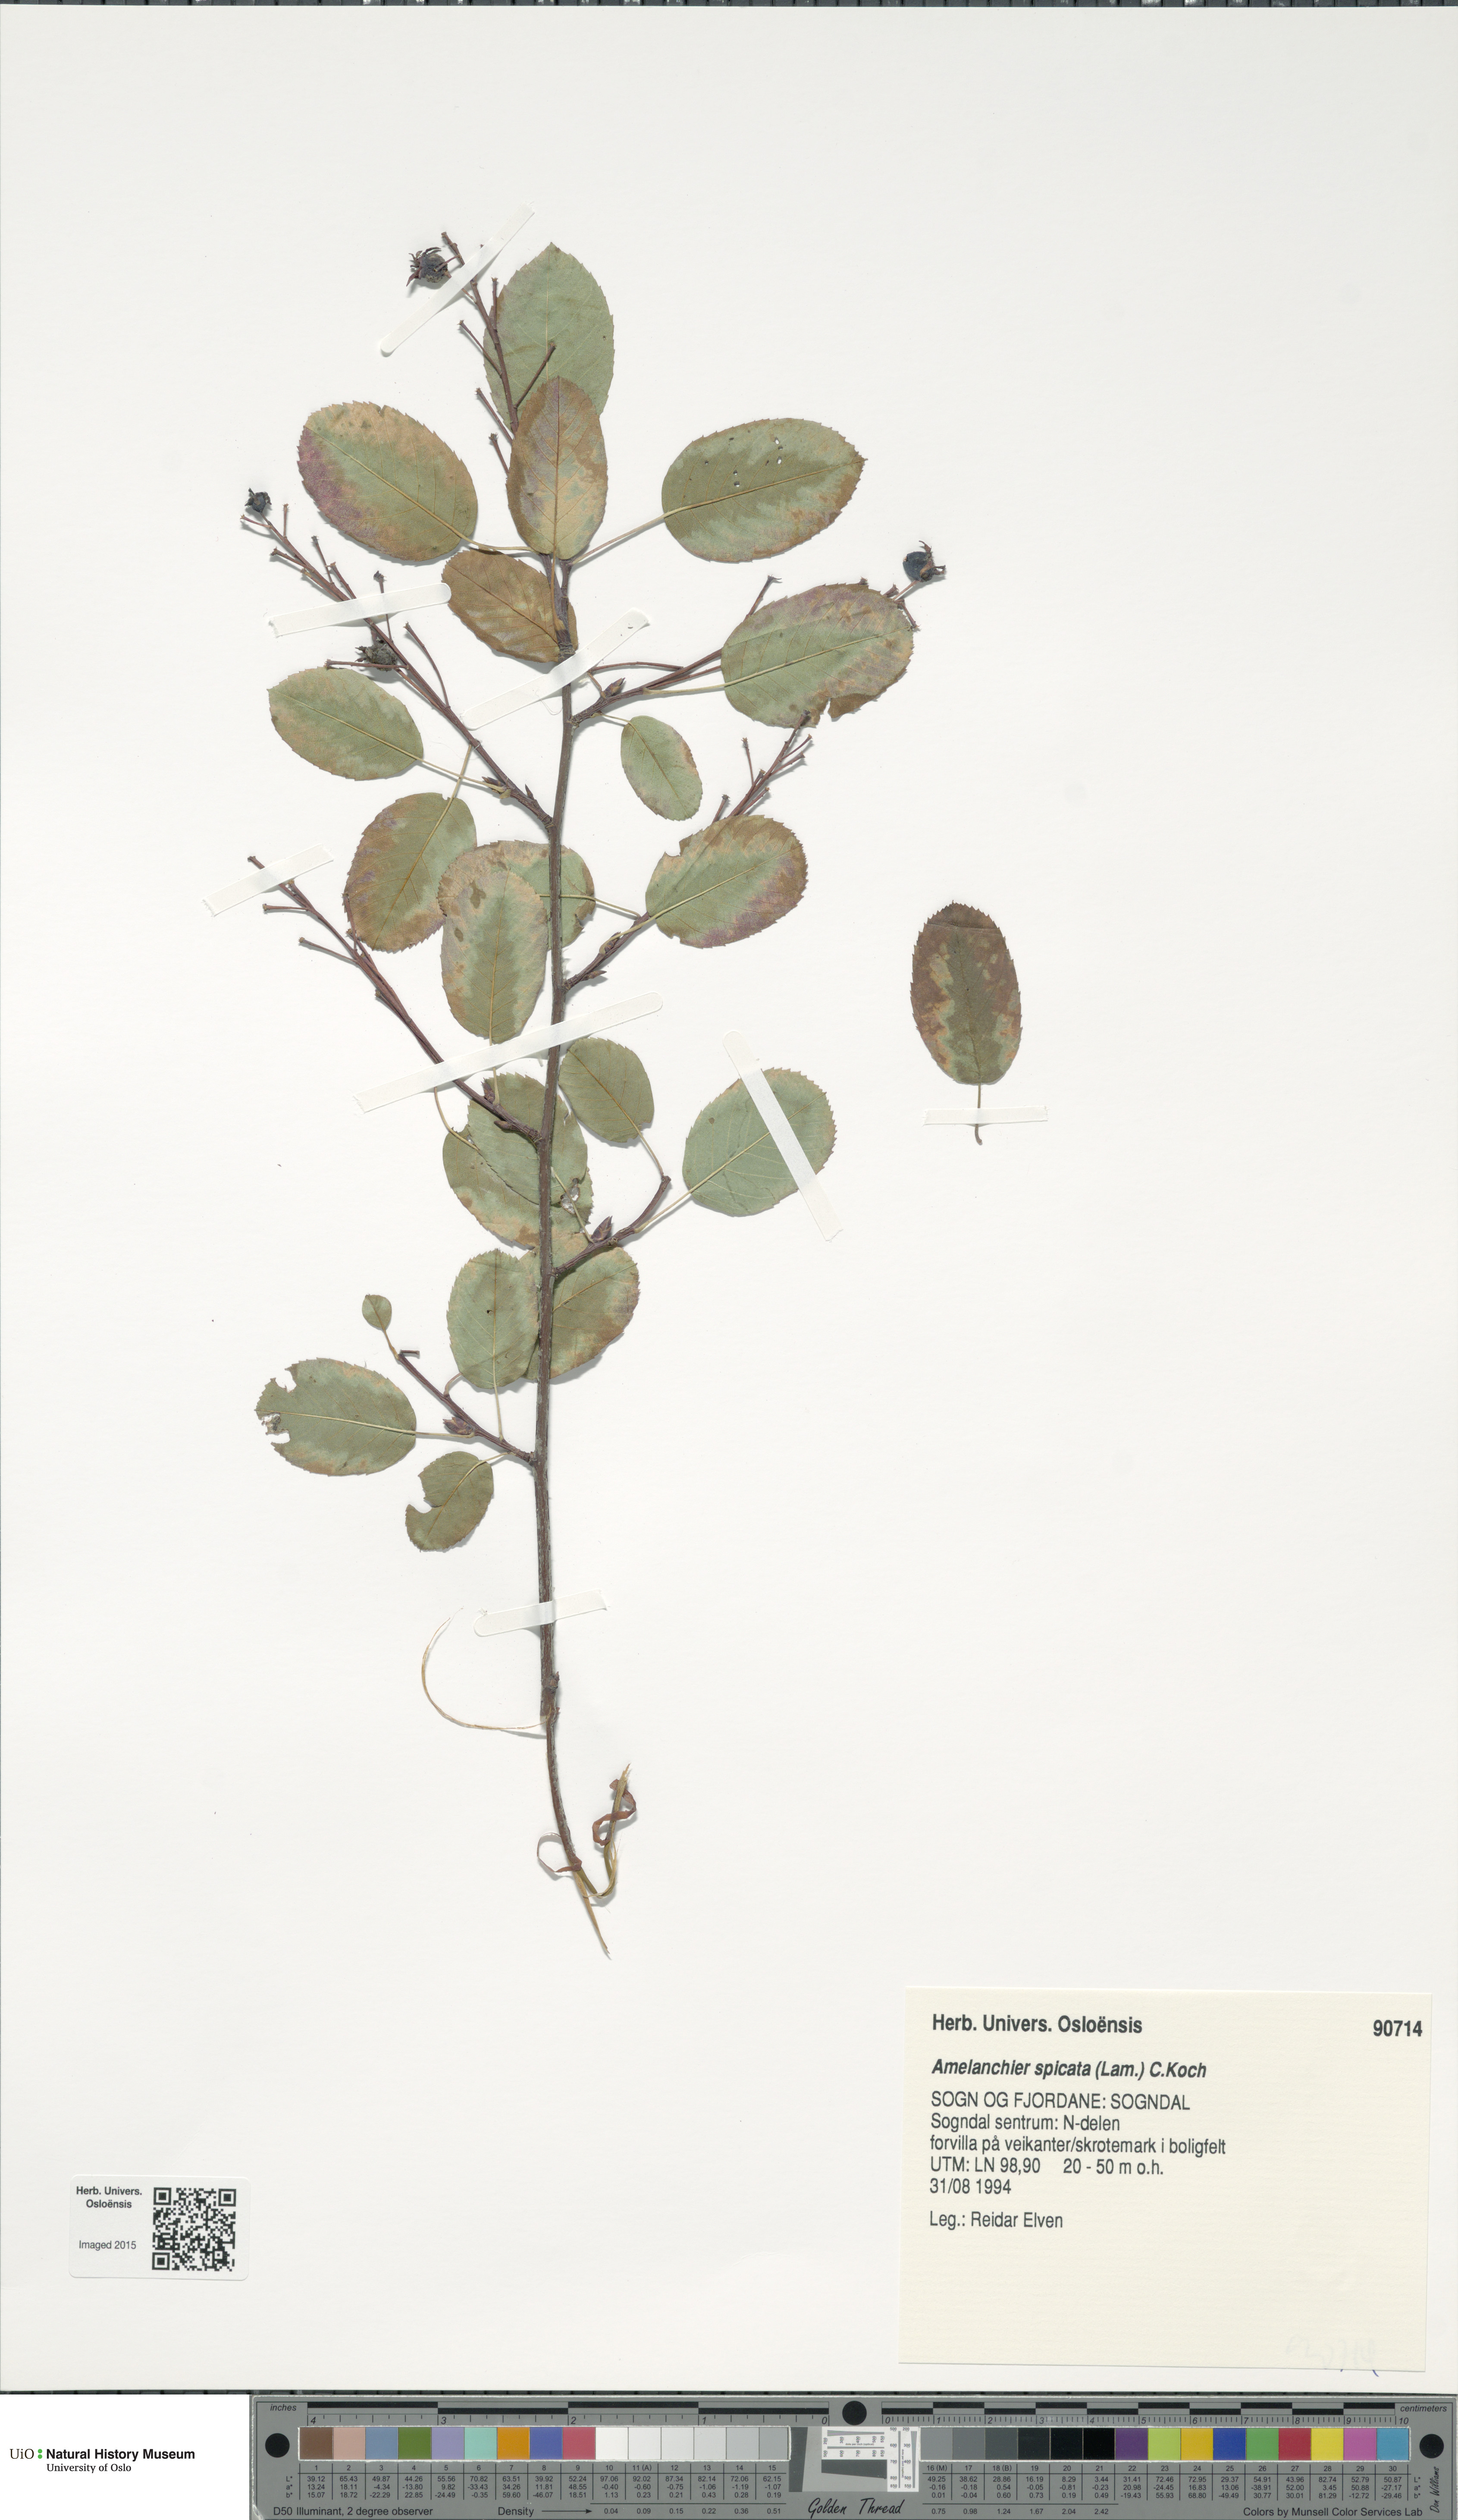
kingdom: Plantae
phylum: Tracheophyta
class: Magnoliopsida
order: Rosales
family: Rosaceae
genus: Amelanchier
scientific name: Amelanchier humilis
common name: Low juneberry
